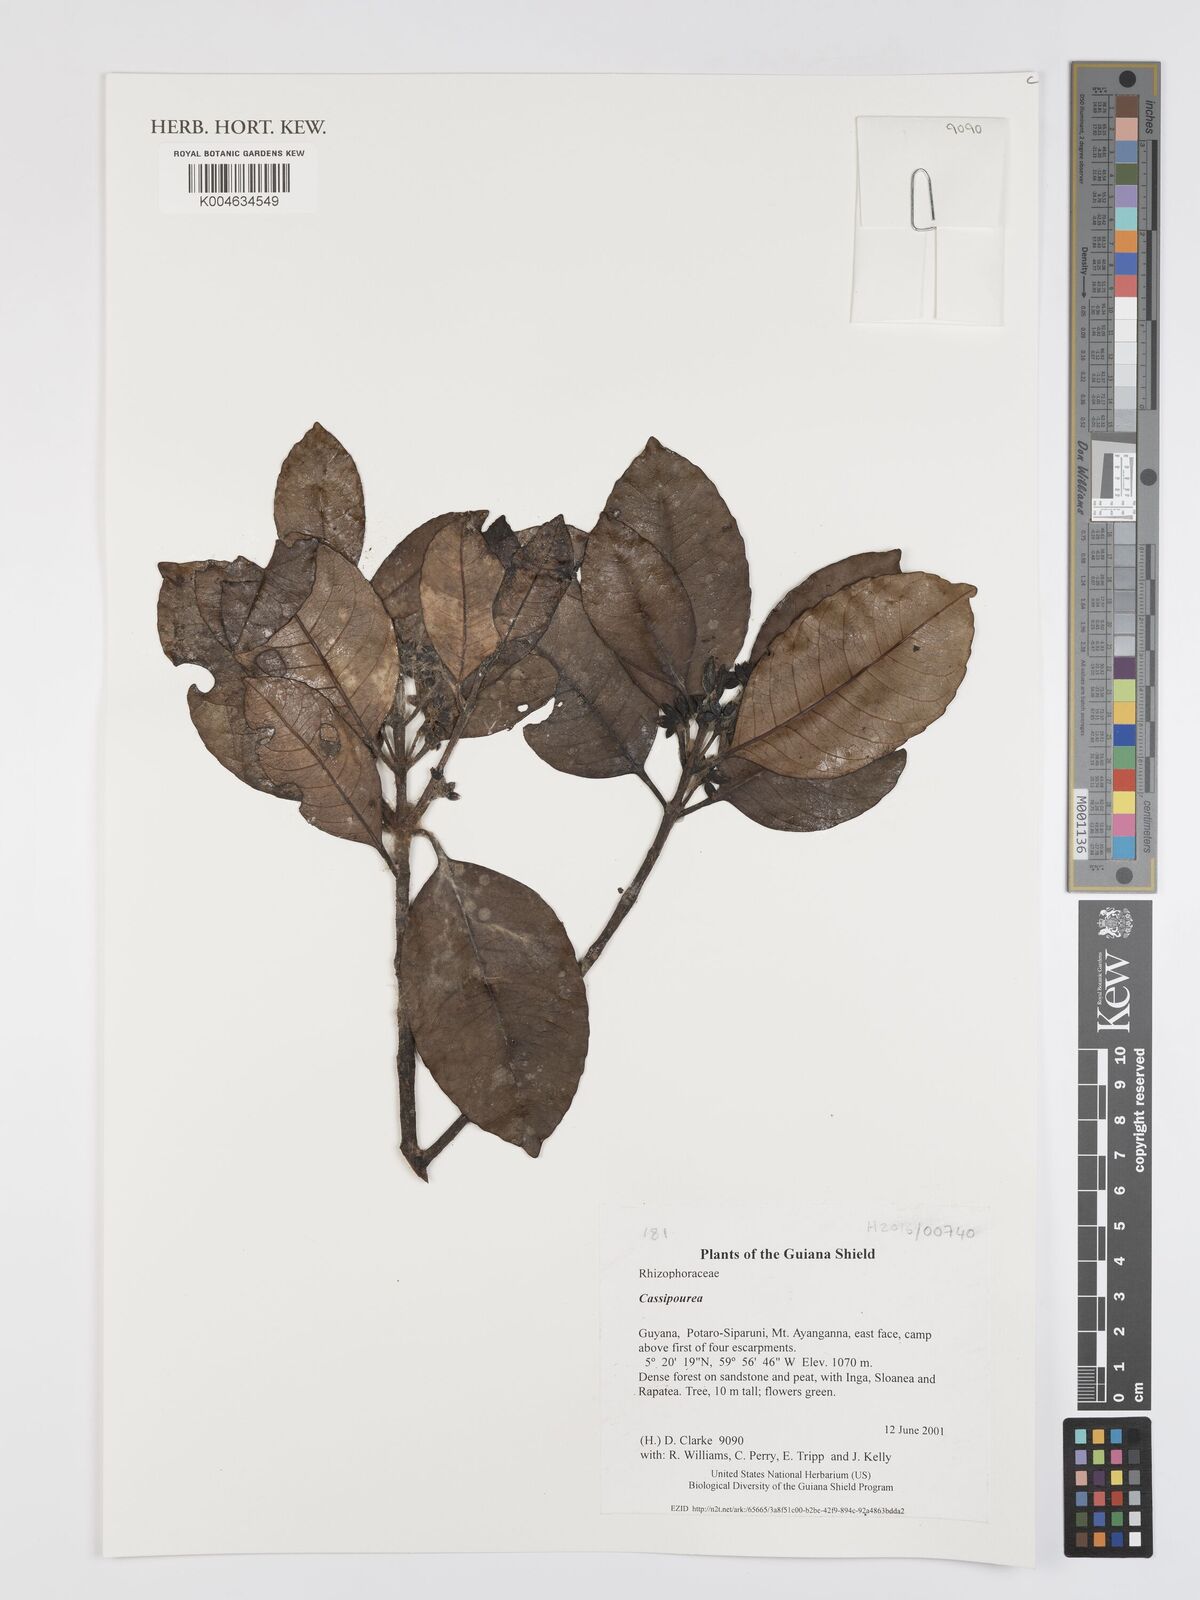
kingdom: Plantae
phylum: Tracheophyta
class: Magnoliopsida
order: Malpighiales
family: Rhizophoraceae
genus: Cassipourea
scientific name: Cassipourea
